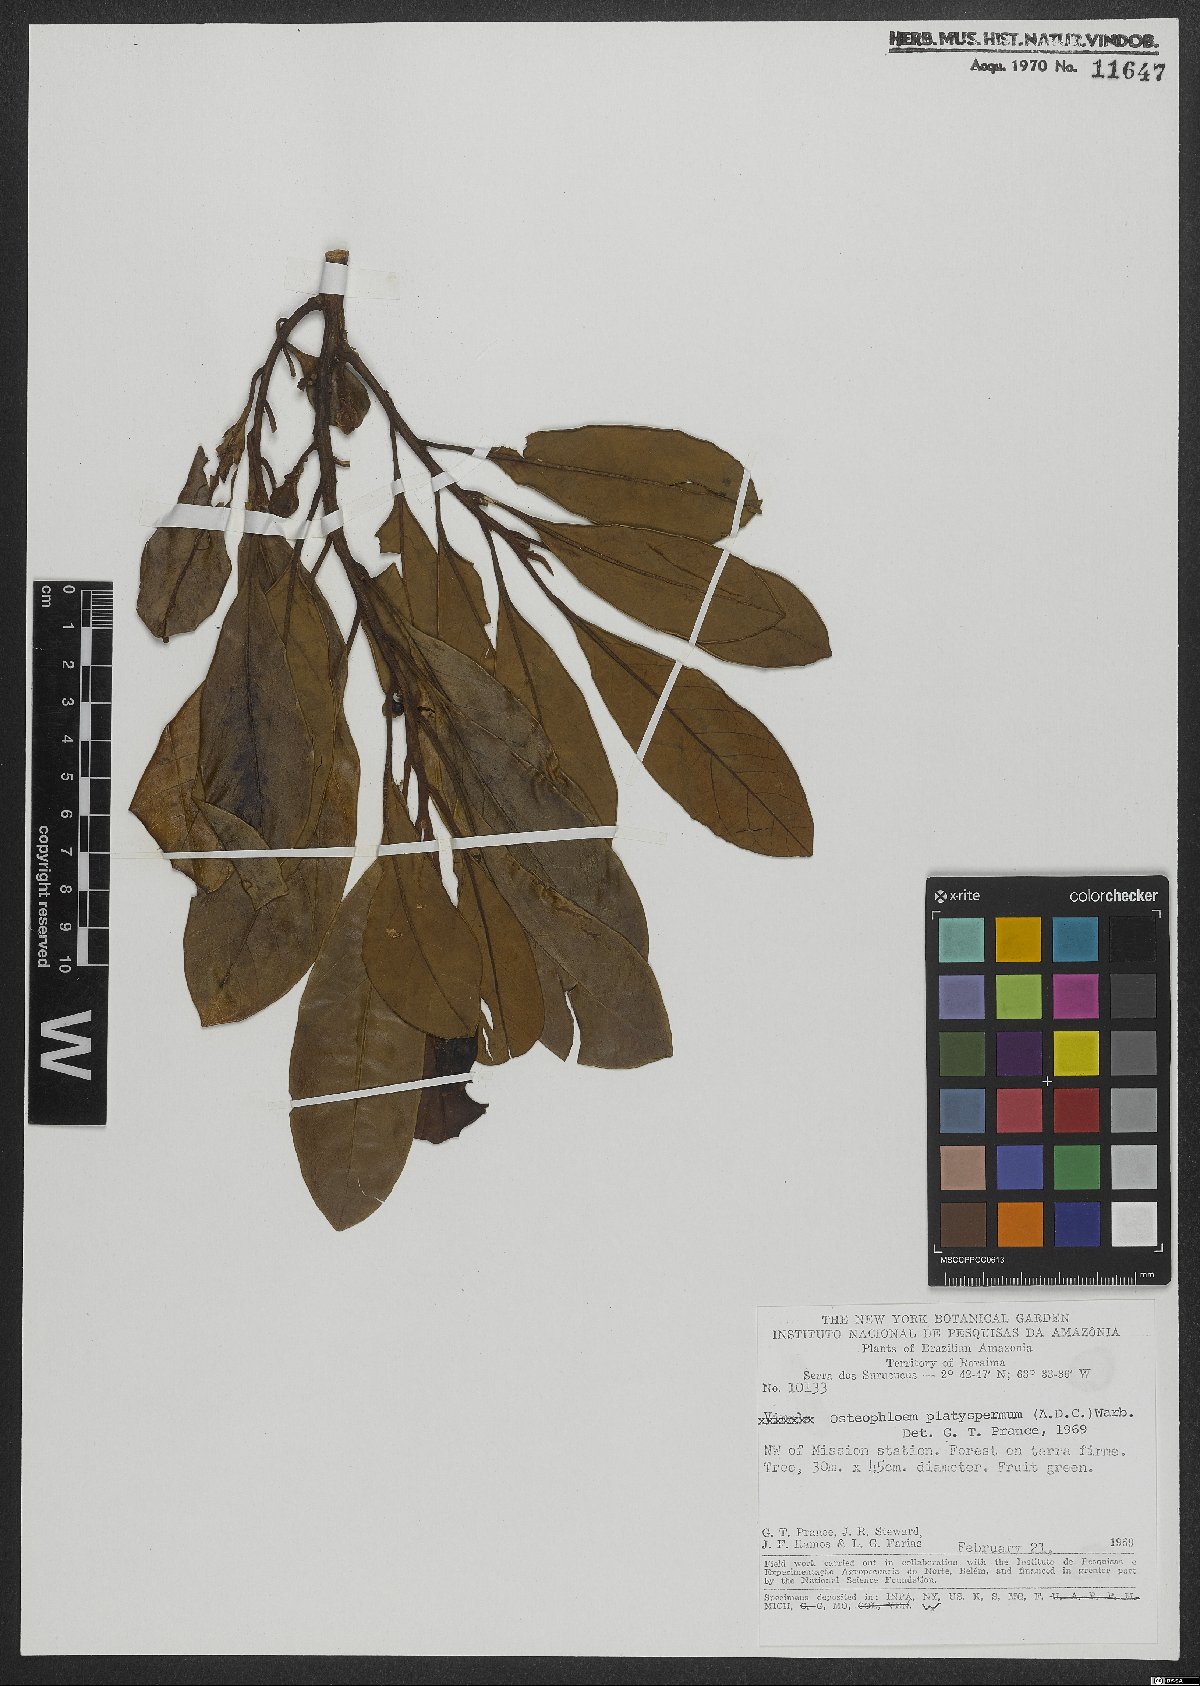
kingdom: Plantae
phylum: Tracheophyta
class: Magnoliopsida
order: Magnoliales
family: Myristicaceae
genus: Osteophloeum
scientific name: Osteophloeum platyspermum
